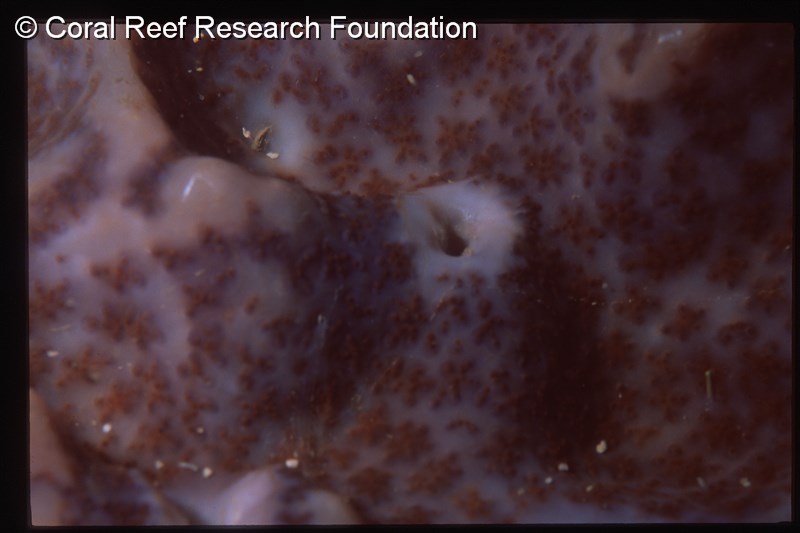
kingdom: Animalia
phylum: Chordata
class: Ascidiacea
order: Aplousobranchia
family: Polyclinidae
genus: Synoicum
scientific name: Synoicum
